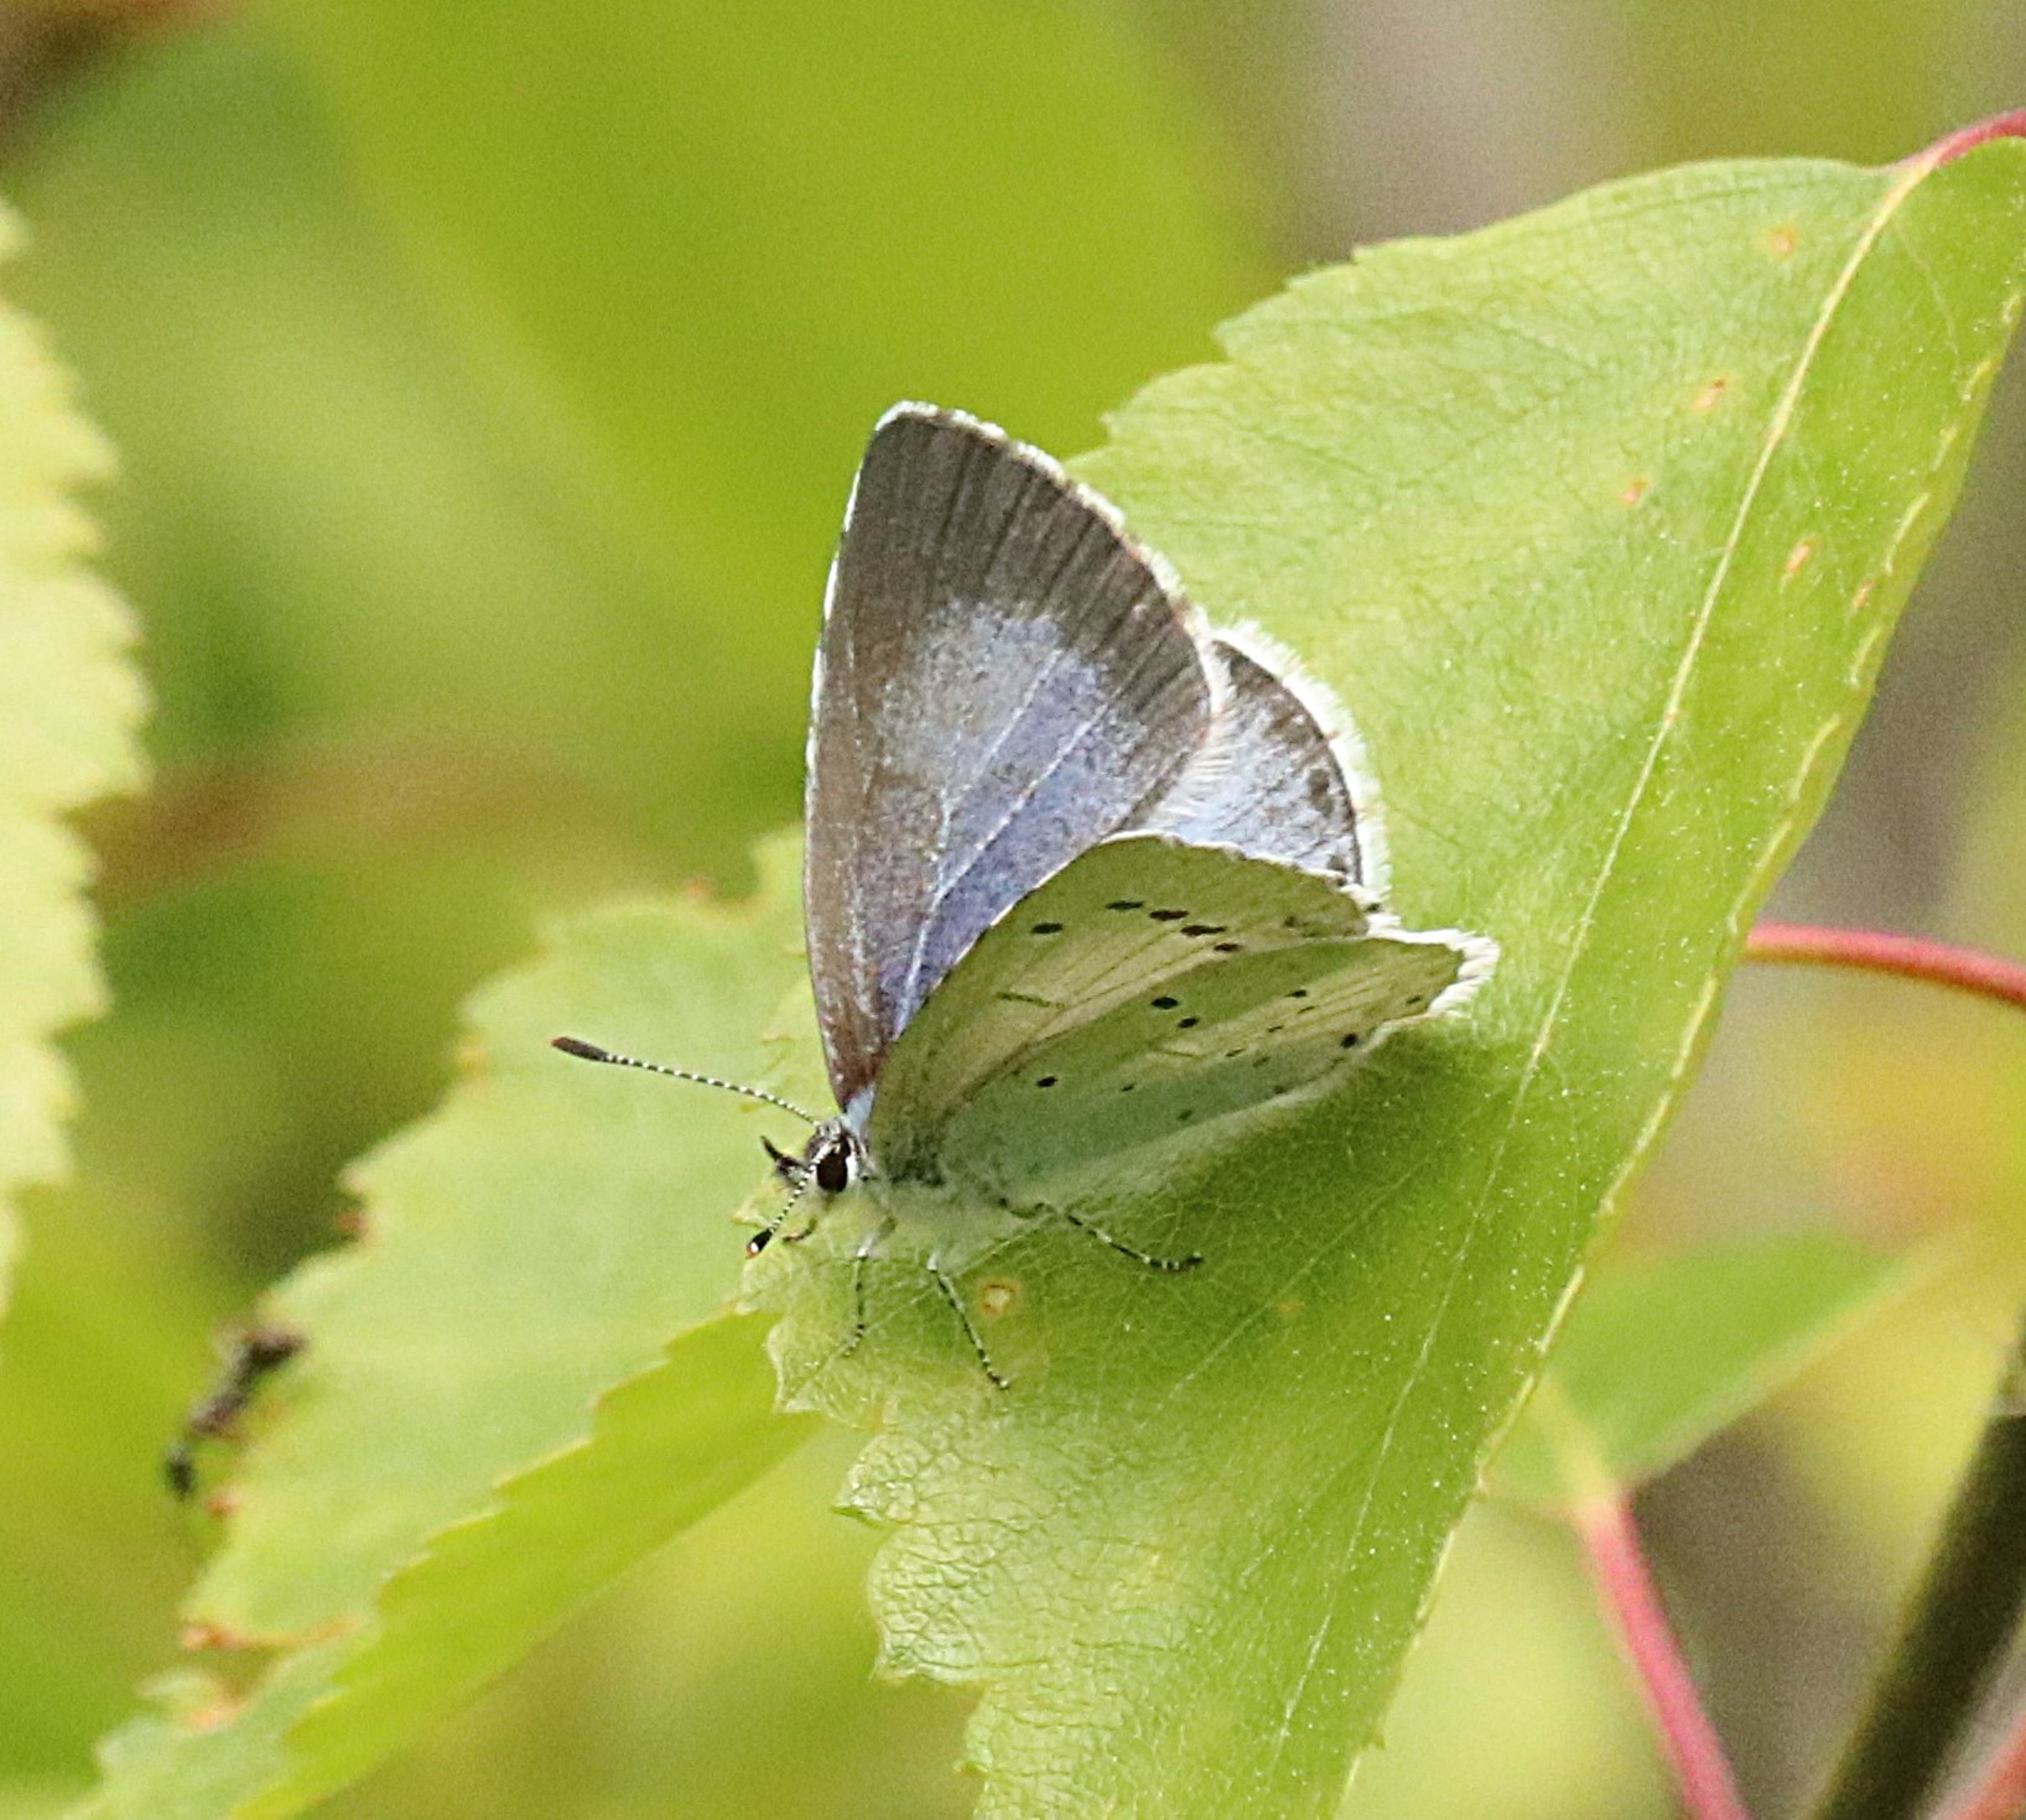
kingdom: Animalia
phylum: Arthropoda
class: Insecta
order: Lepidoptera
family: Lycaenidae
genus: Celastrina
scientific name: Celastrina argiolus
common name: Skovblåfugl
